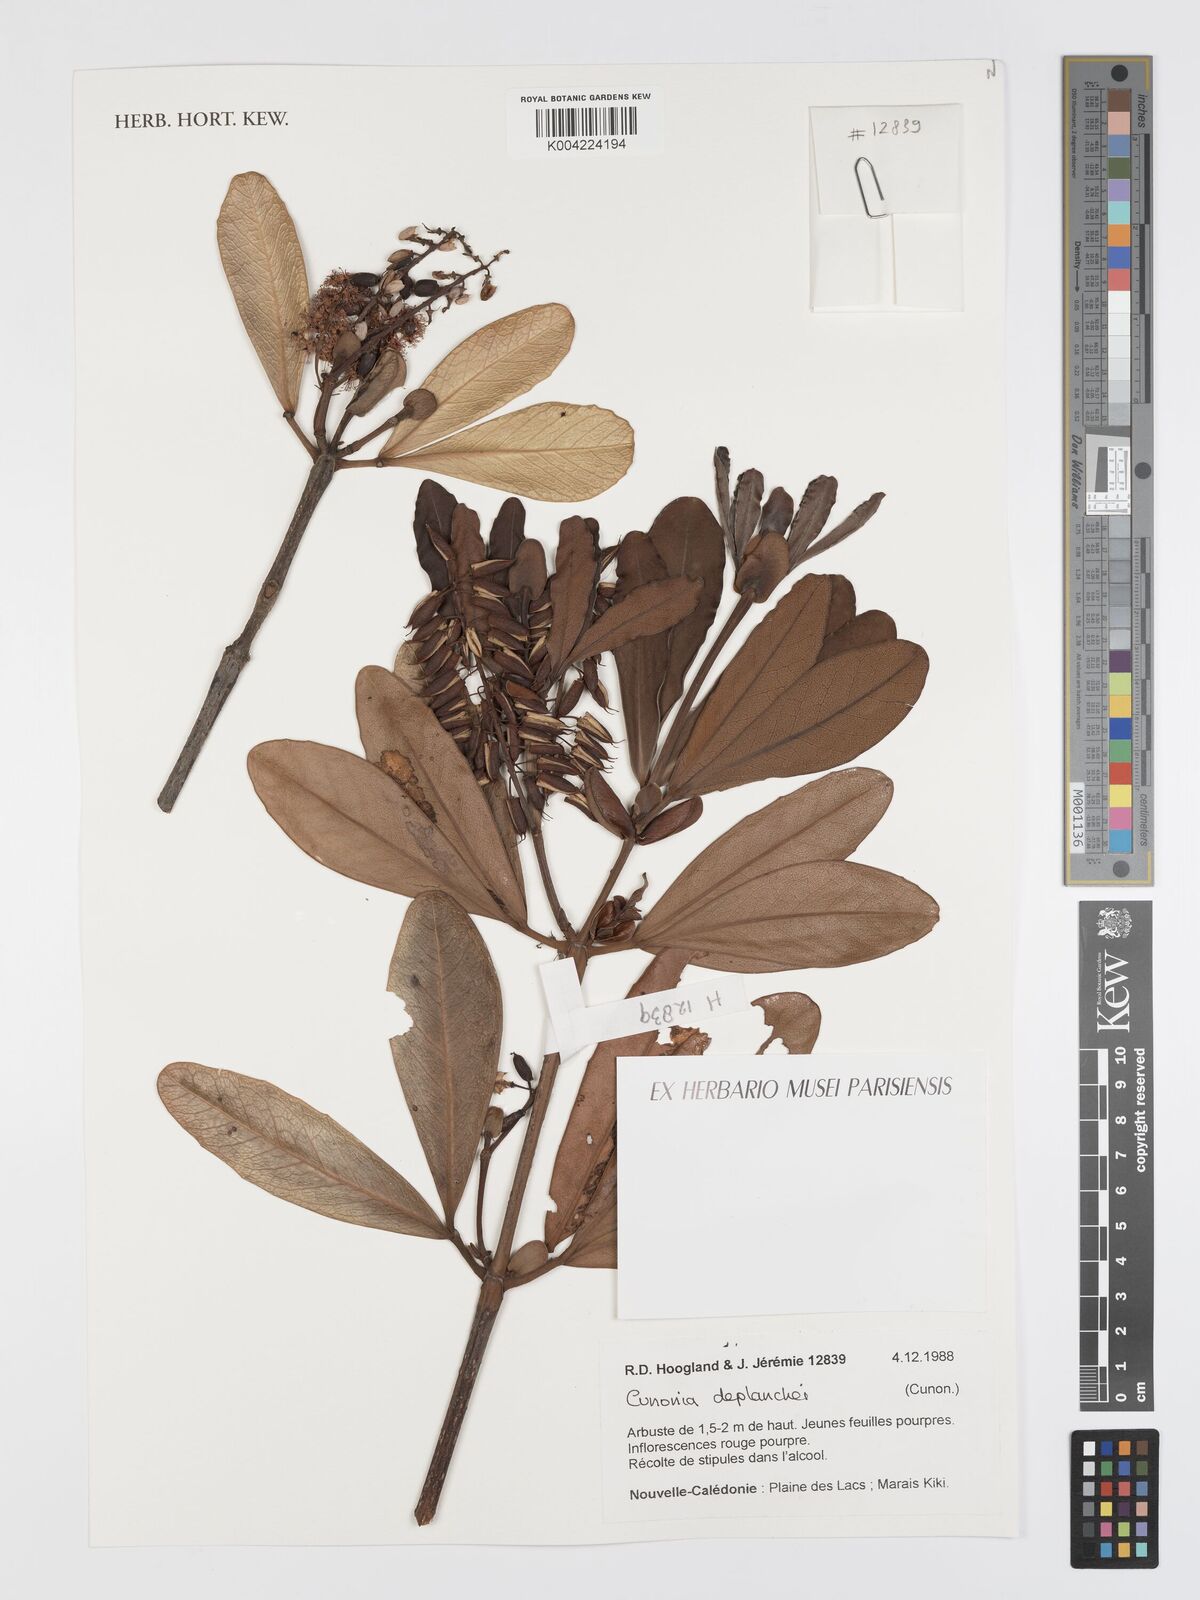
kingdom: Plantae
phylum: Tracheophyta
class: Magnoliopsida
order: Oxalidales
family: Cunoniaceae
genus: Cunonia
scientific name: Cunonia deplanchei
